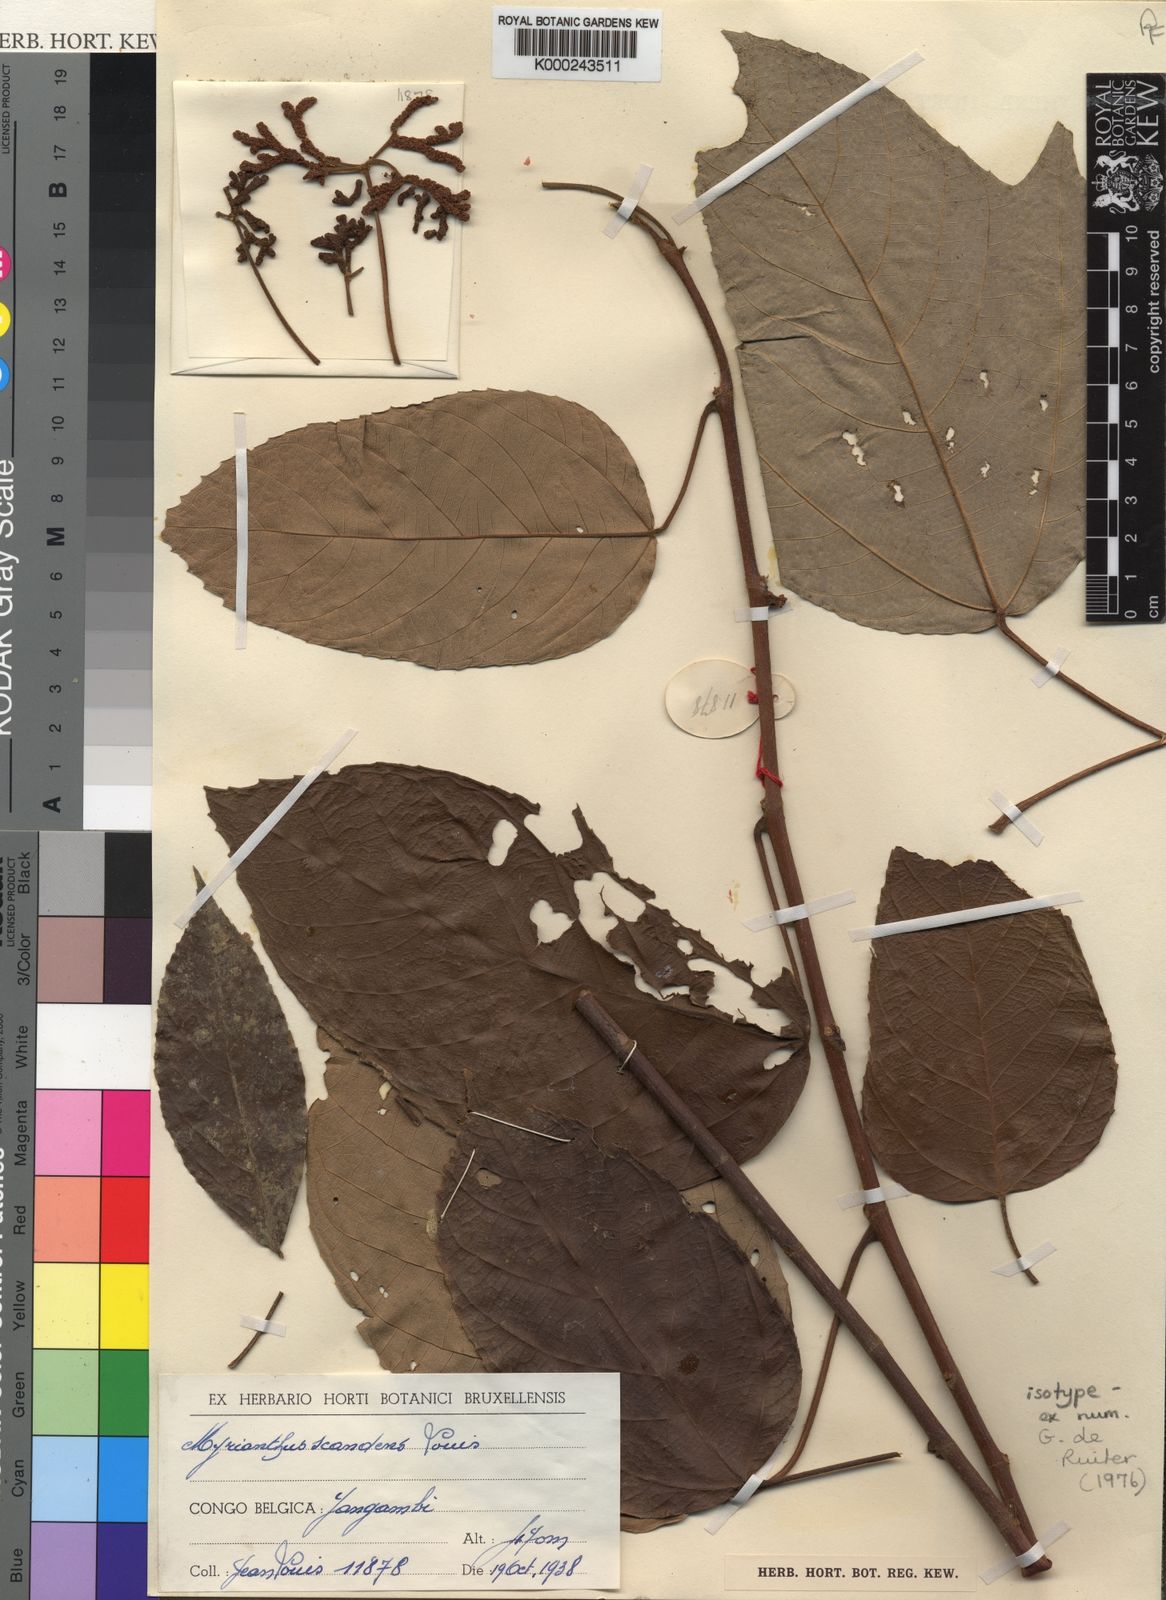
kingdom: Plantae
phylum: Tracheophyta
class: Magnoliopsida
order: Rosales
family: Urticaceae
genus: Myrianthus
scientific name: Myrianthus
